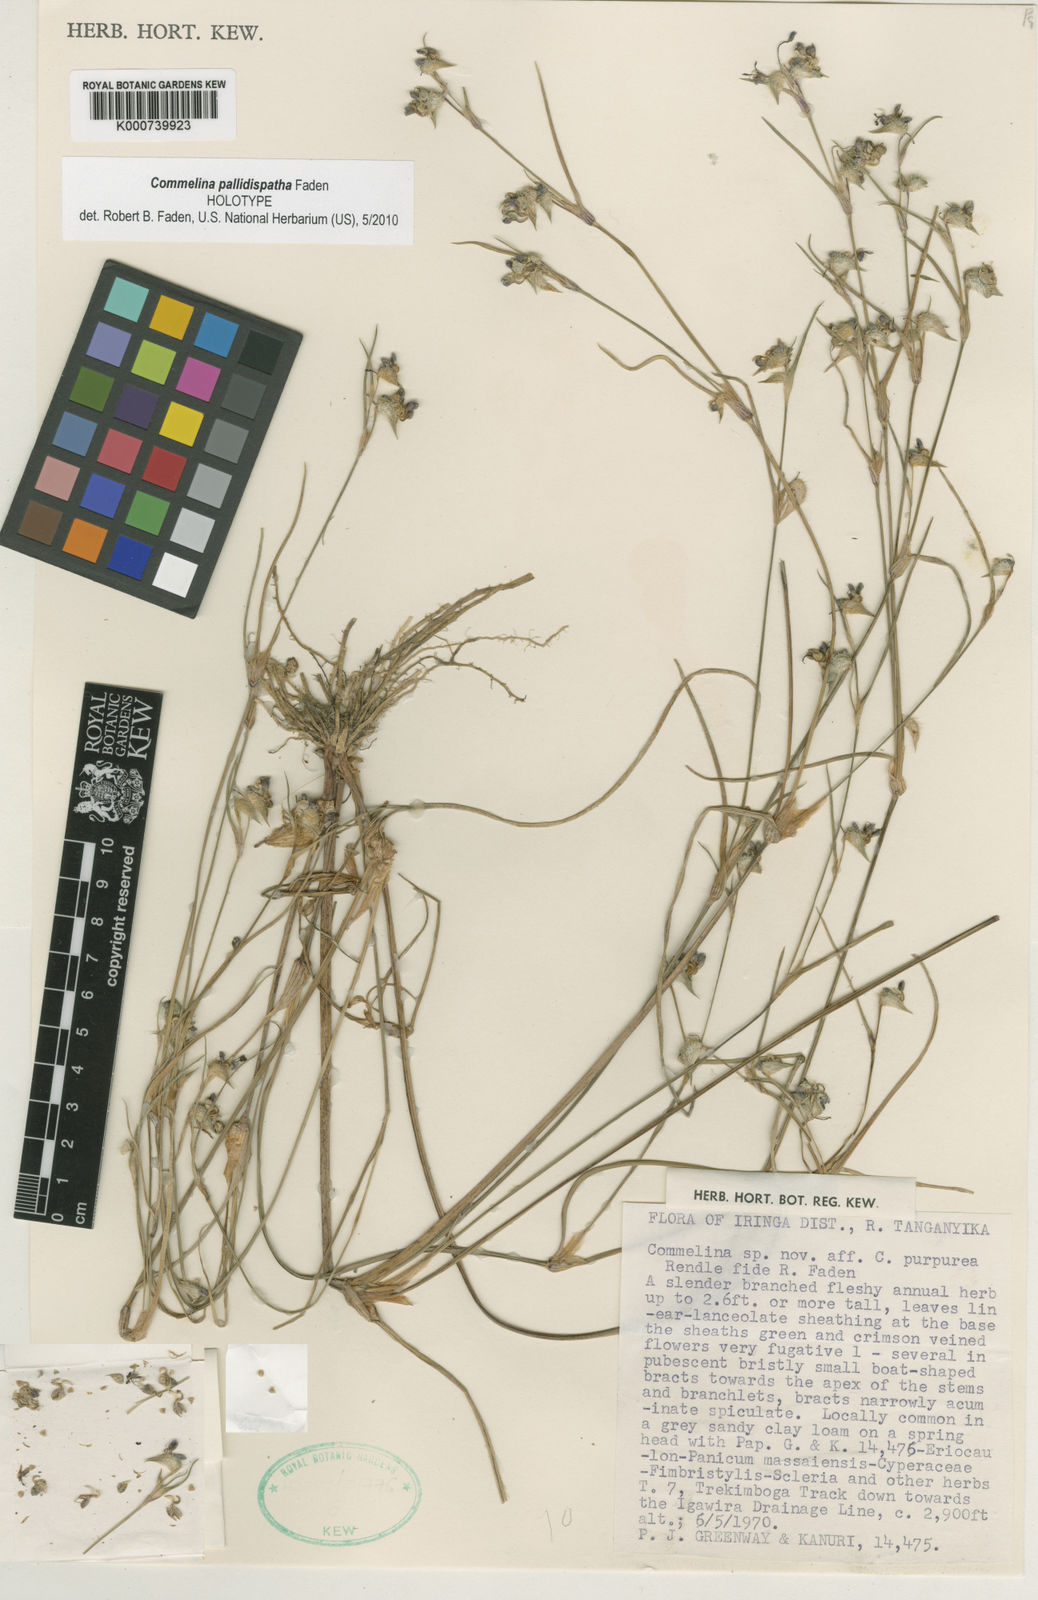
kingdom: Plantae
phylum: Tracheophyta
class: Liliopsida
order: Commelinales
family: Commelinaceae
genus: Commelina
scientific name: Commelina pallidispatha
